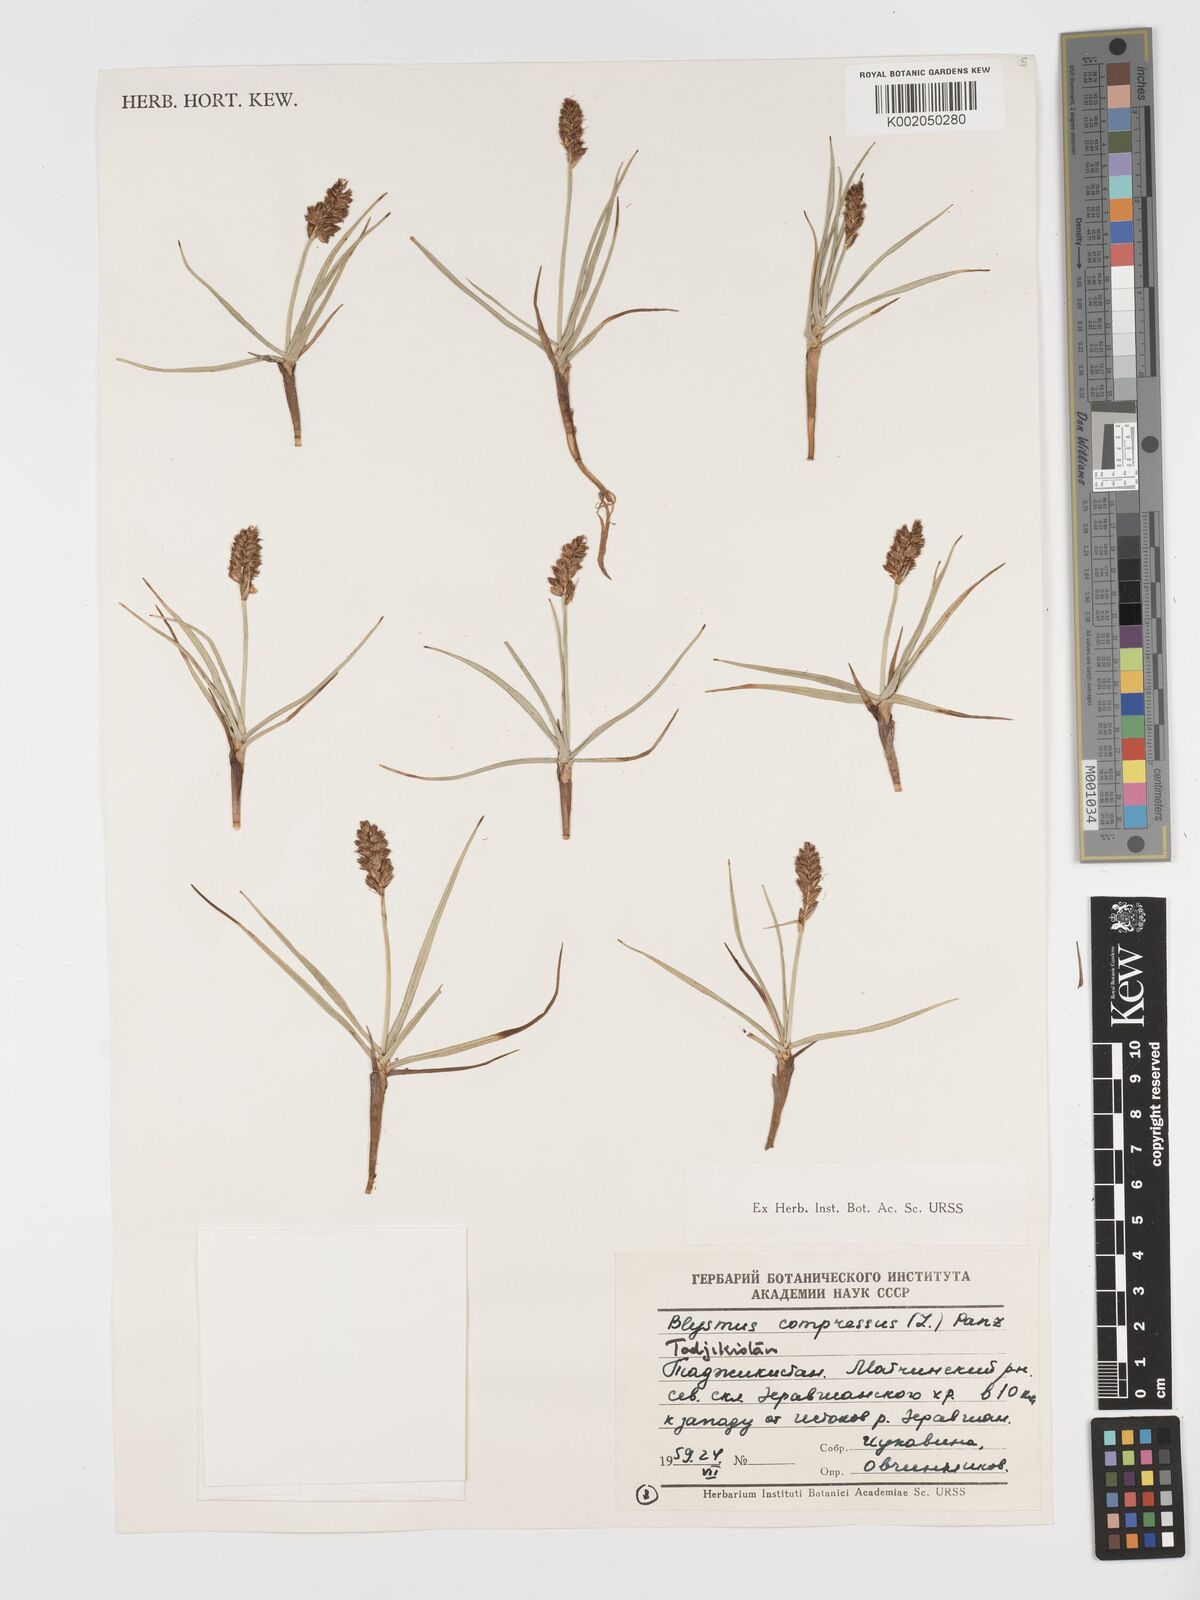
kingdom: Plantae
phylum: Tracheophyta
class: Liliopsida
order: Poales
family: Cyperaceae
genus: Blysmus
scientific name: Blysmus compressus
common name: Flat-sedge
